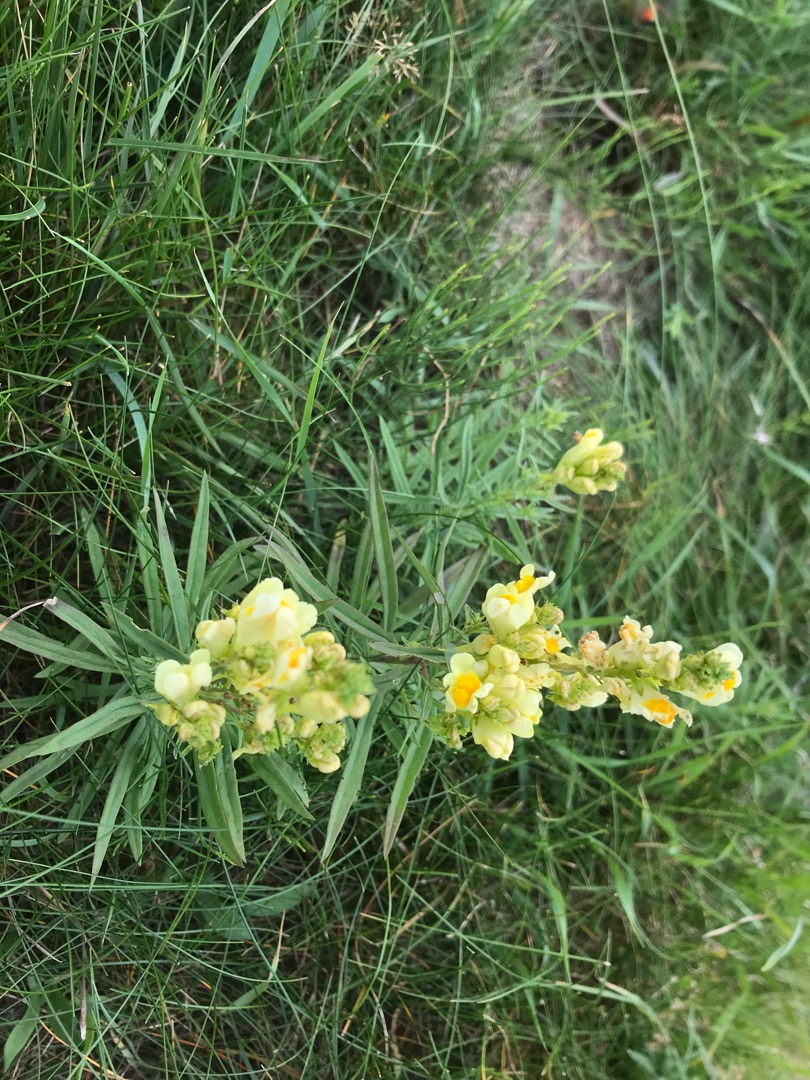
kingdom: Plantae
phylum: Tracheophyta
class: Magnoliopsida
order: Lamiales
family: Plantaginaceae
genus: Linaria
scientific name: Linaria vulgaris
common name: Almindelig torskemund
